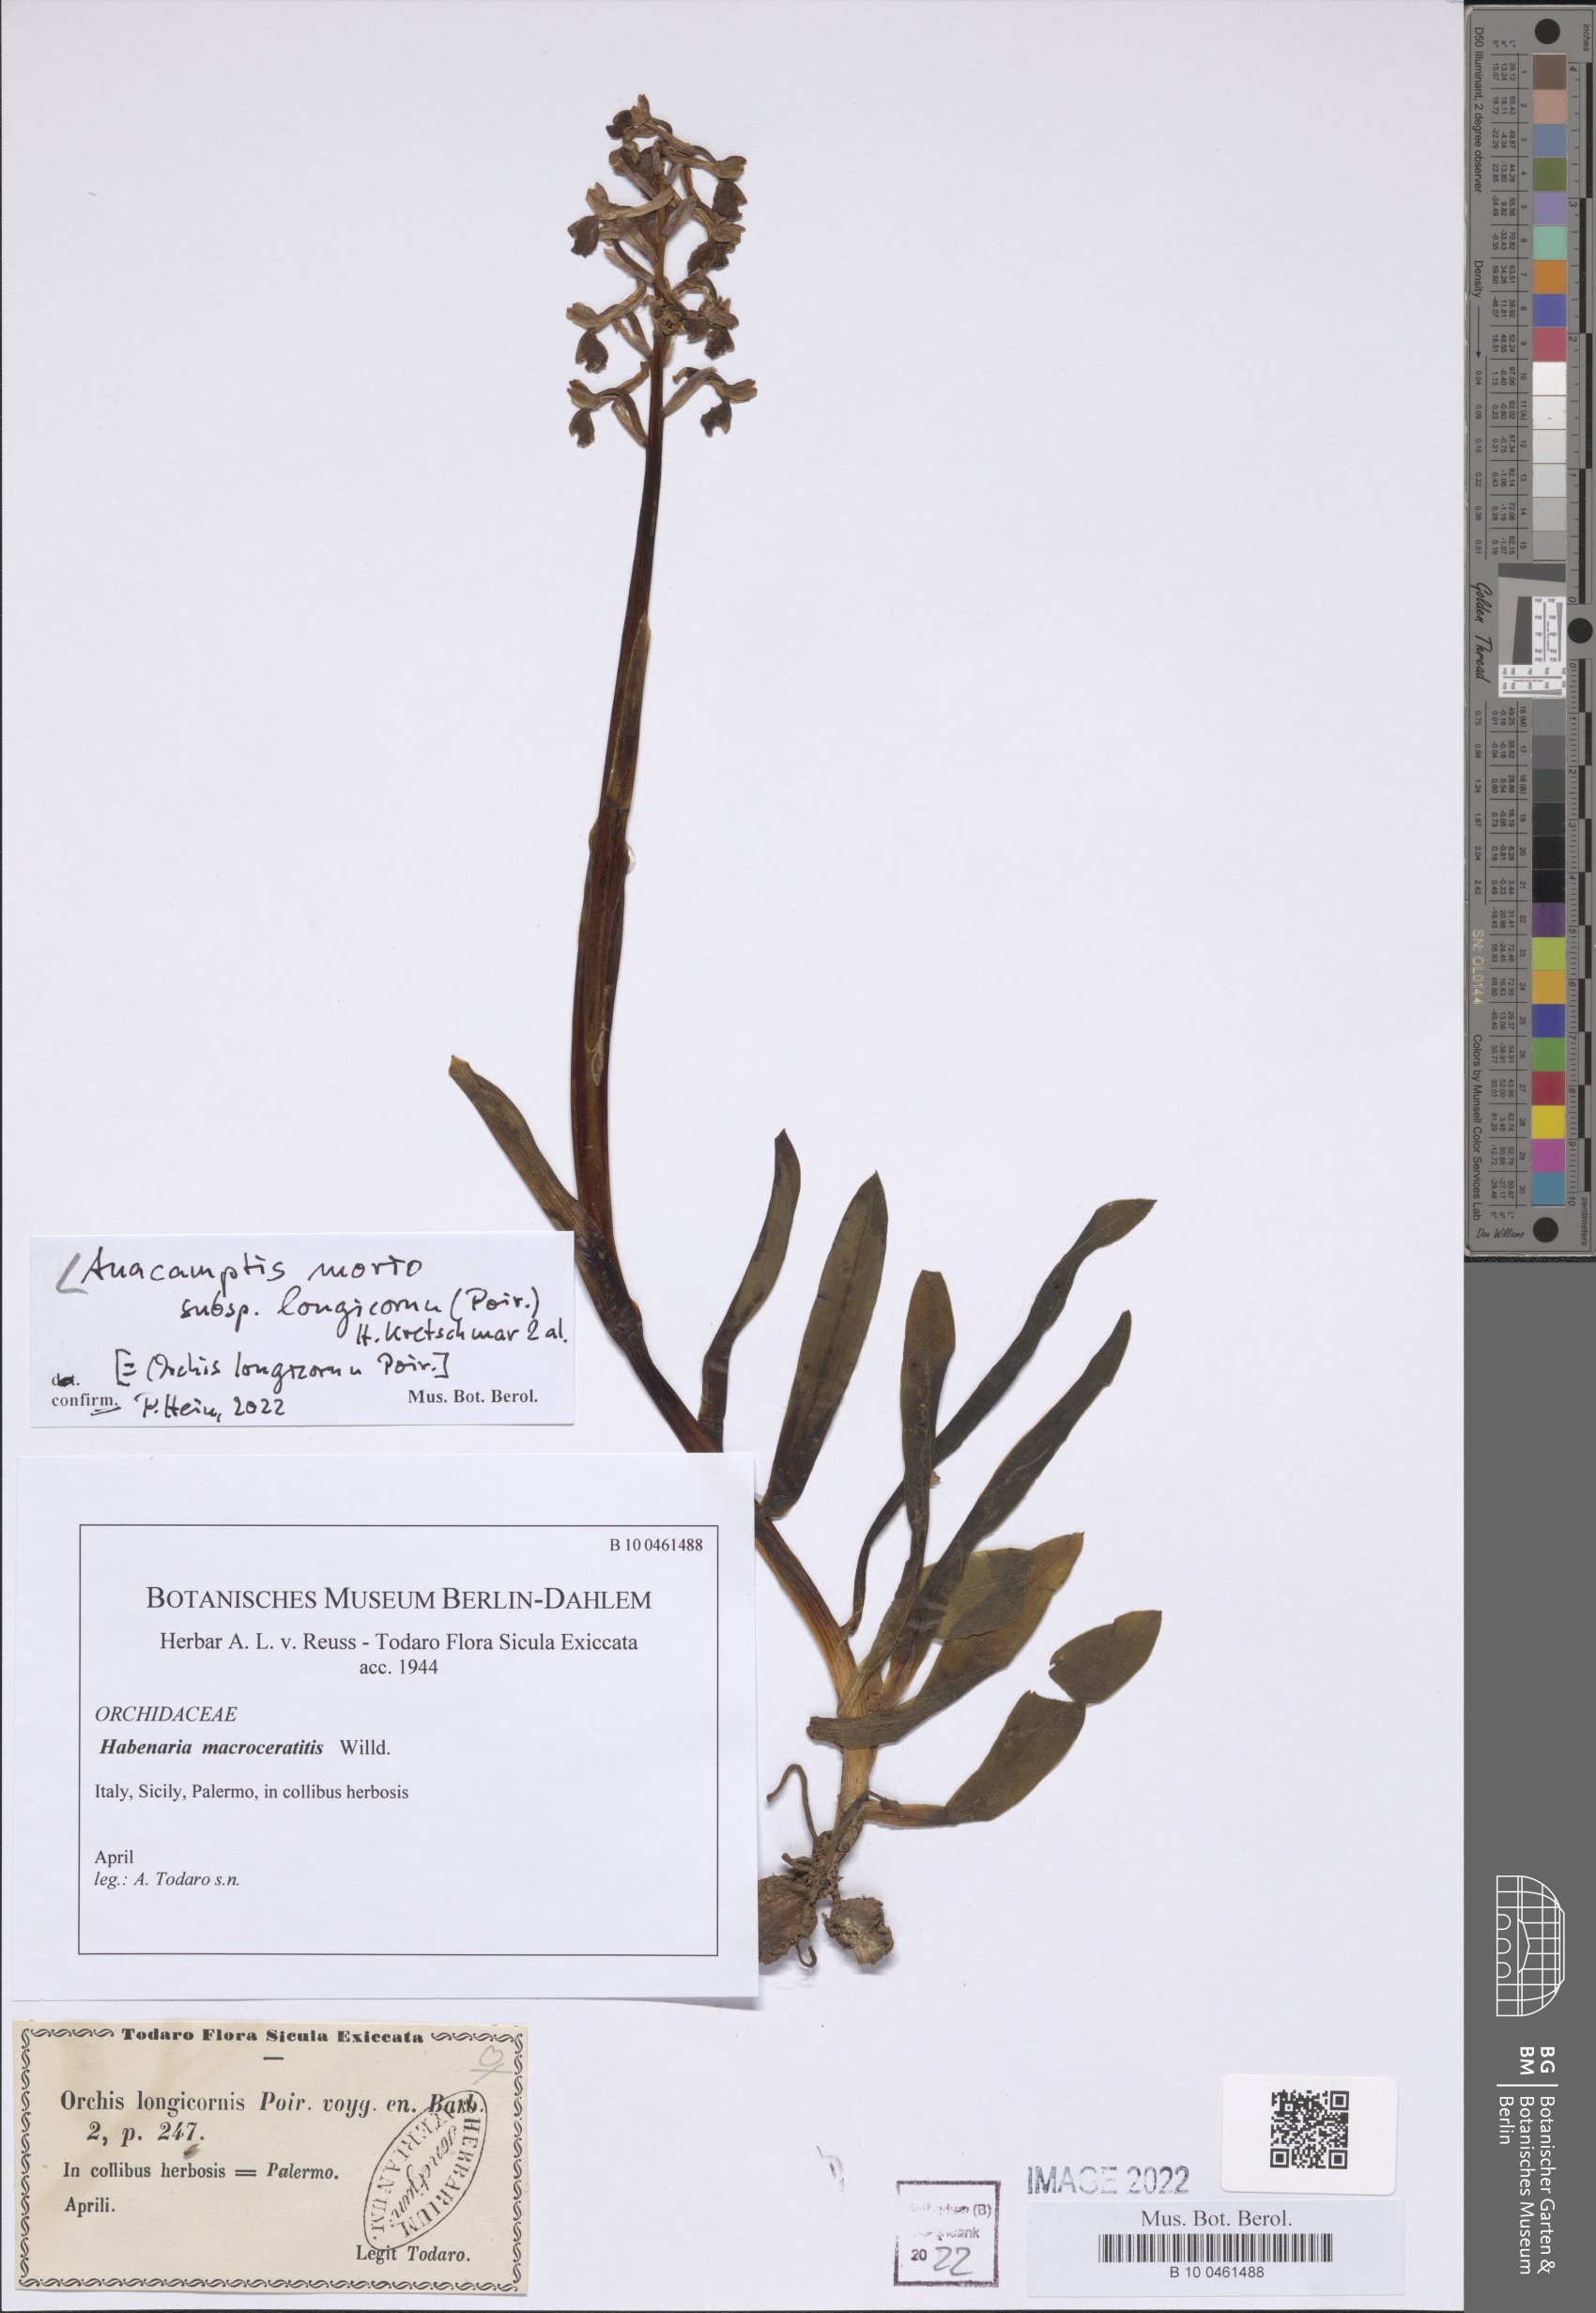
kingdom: Plantae
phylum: Tracheophyta
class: Liliopsida
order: Asparagales
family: Orchidaceae
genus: Anacamptis
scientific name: Anacamptis morio
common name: Green-winged orchid
